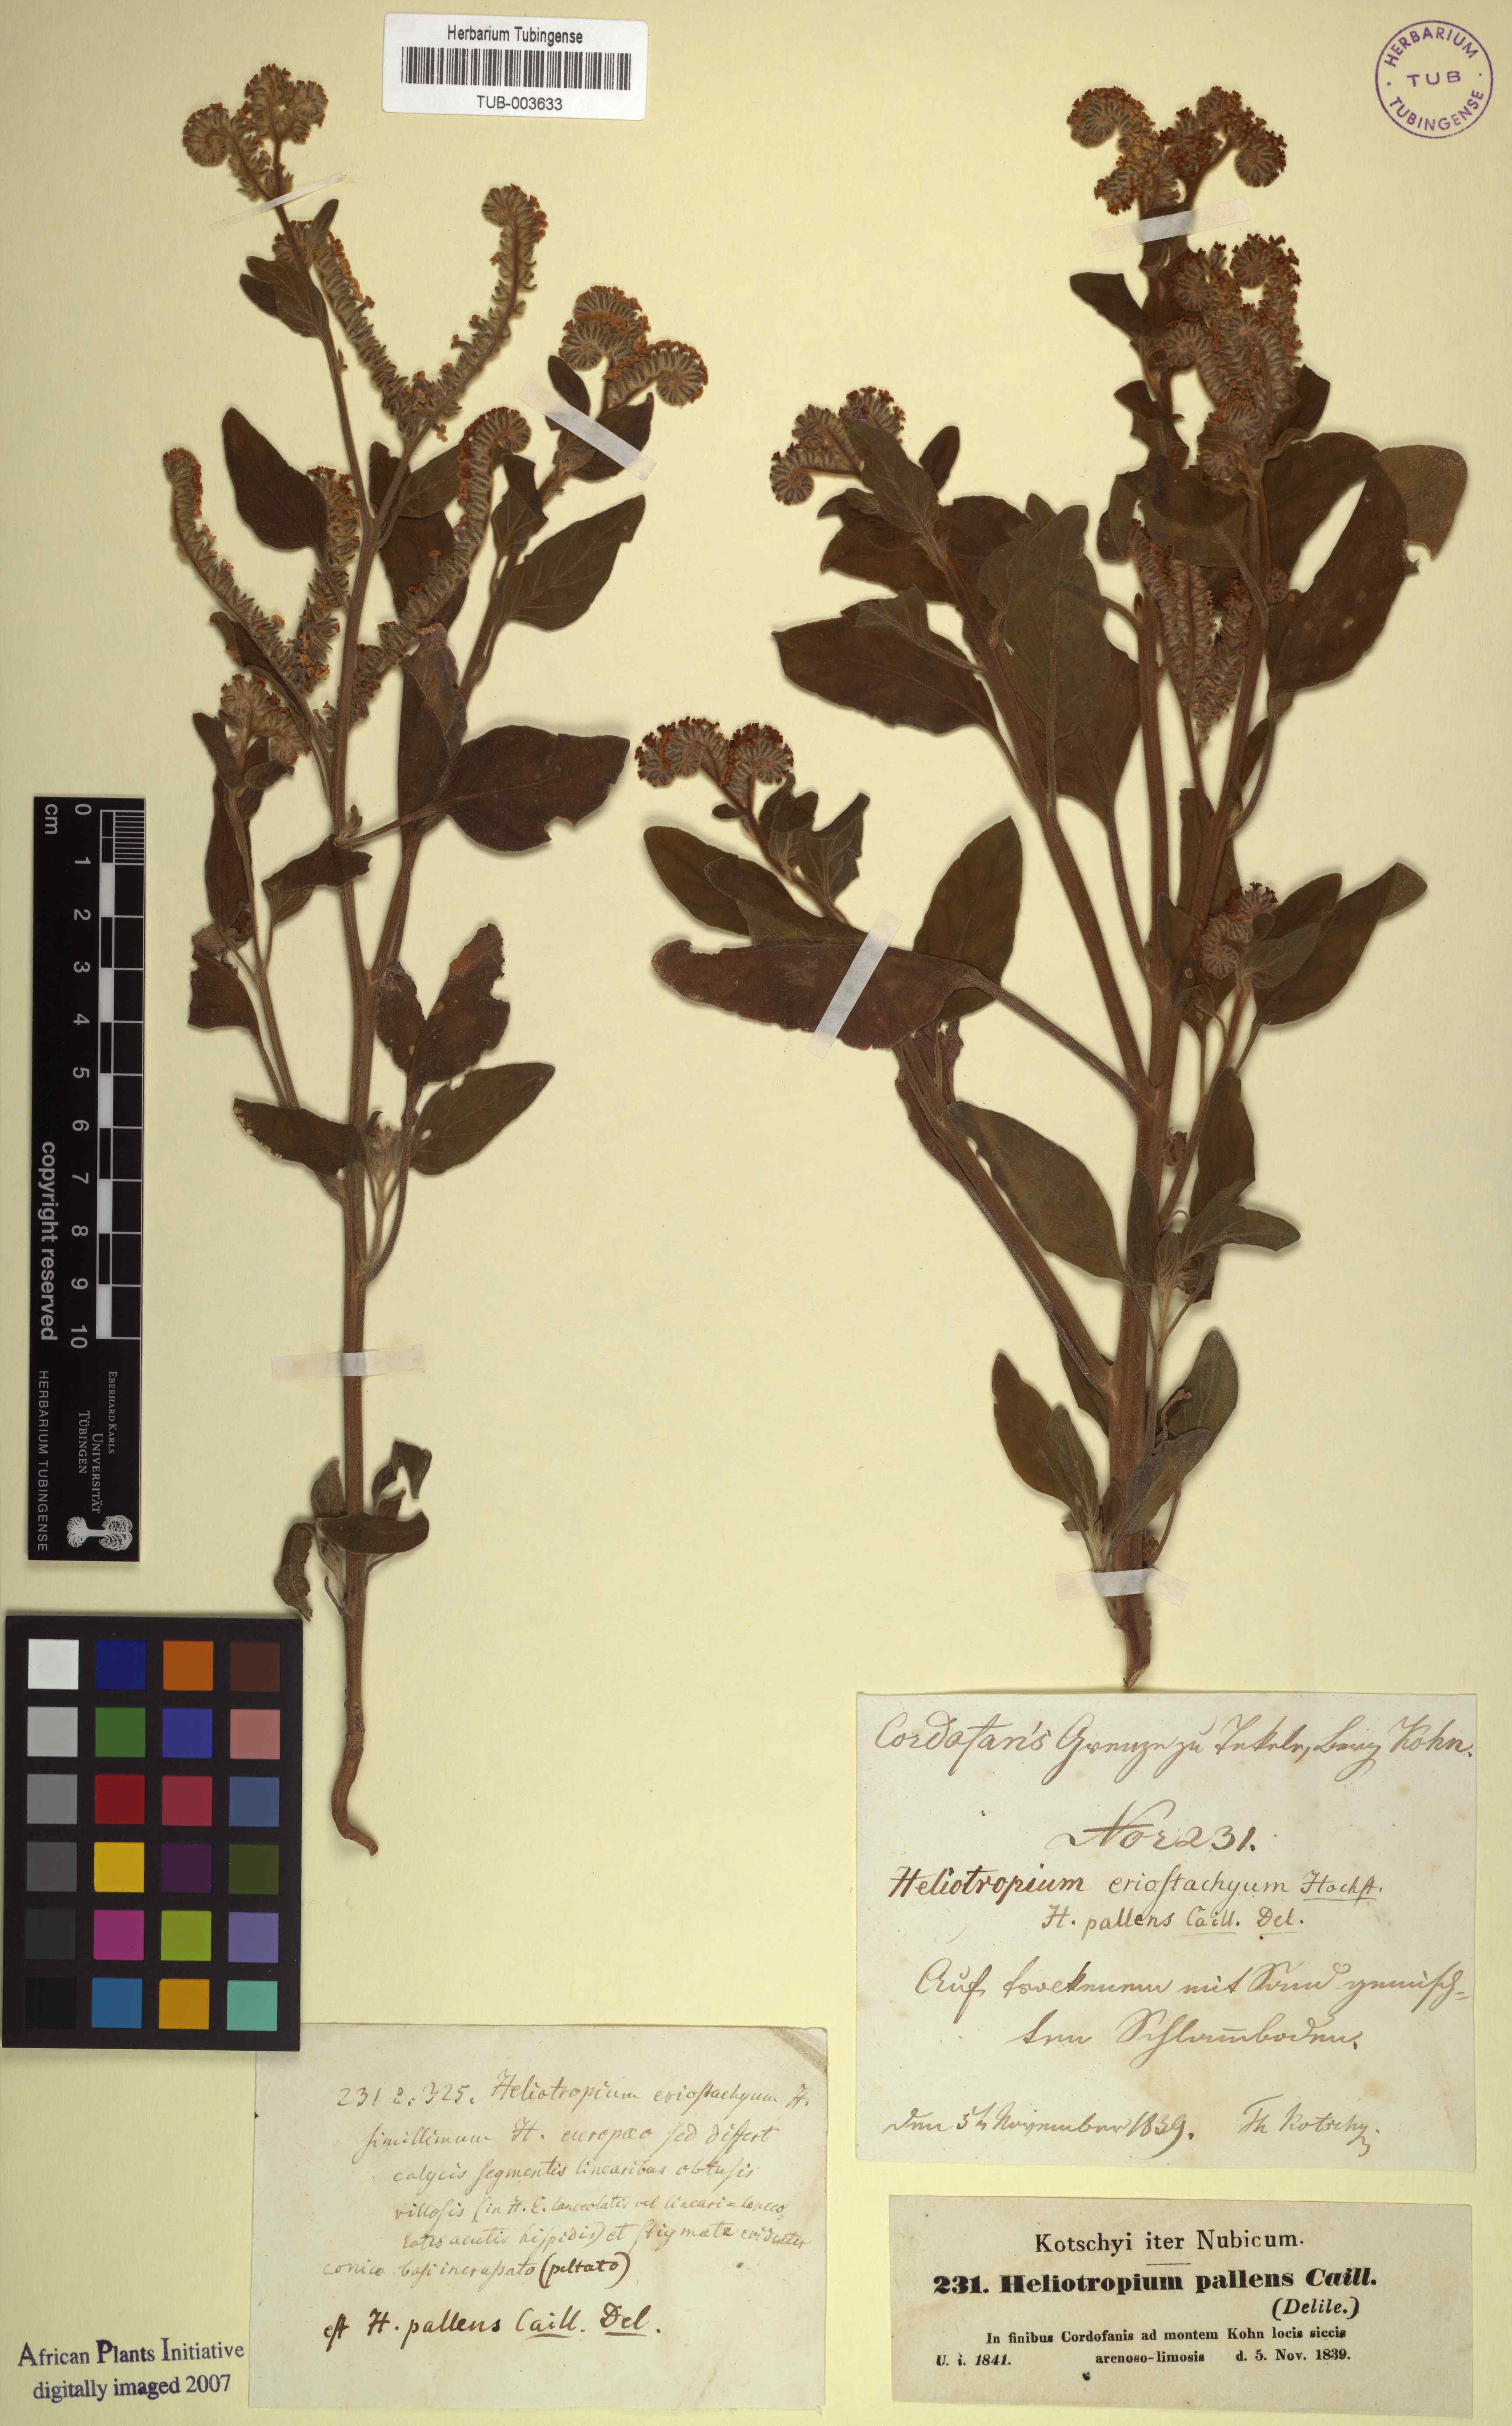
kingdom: Plantae
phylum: Tracheophyta
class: Magnoliopsida
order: Boraginales
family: Heliotropiaceae
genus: Heliotropium
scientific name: Heliotropium aegyptiacum
